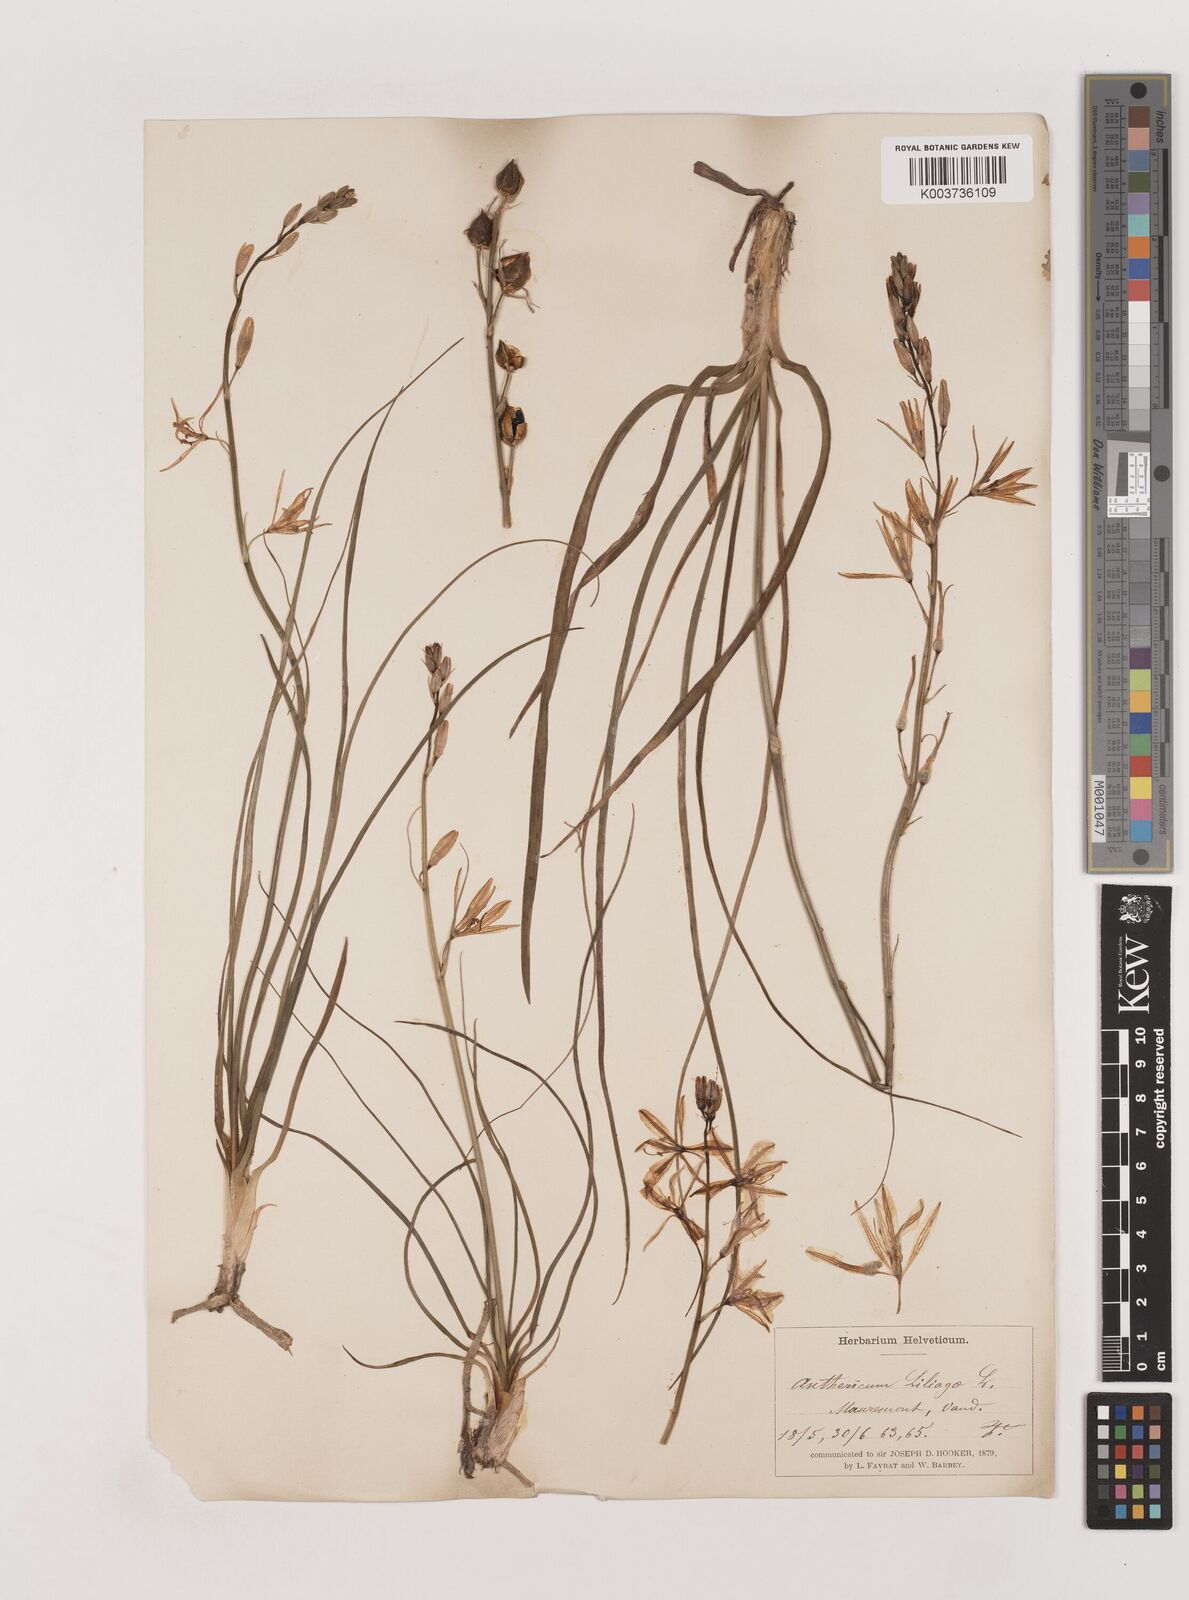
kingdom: Plantae
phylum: Tracheophyta
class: Liliopsida
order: Asparagales
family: Asparagaceae
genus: Anthericum
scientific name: Anthericum liliago
